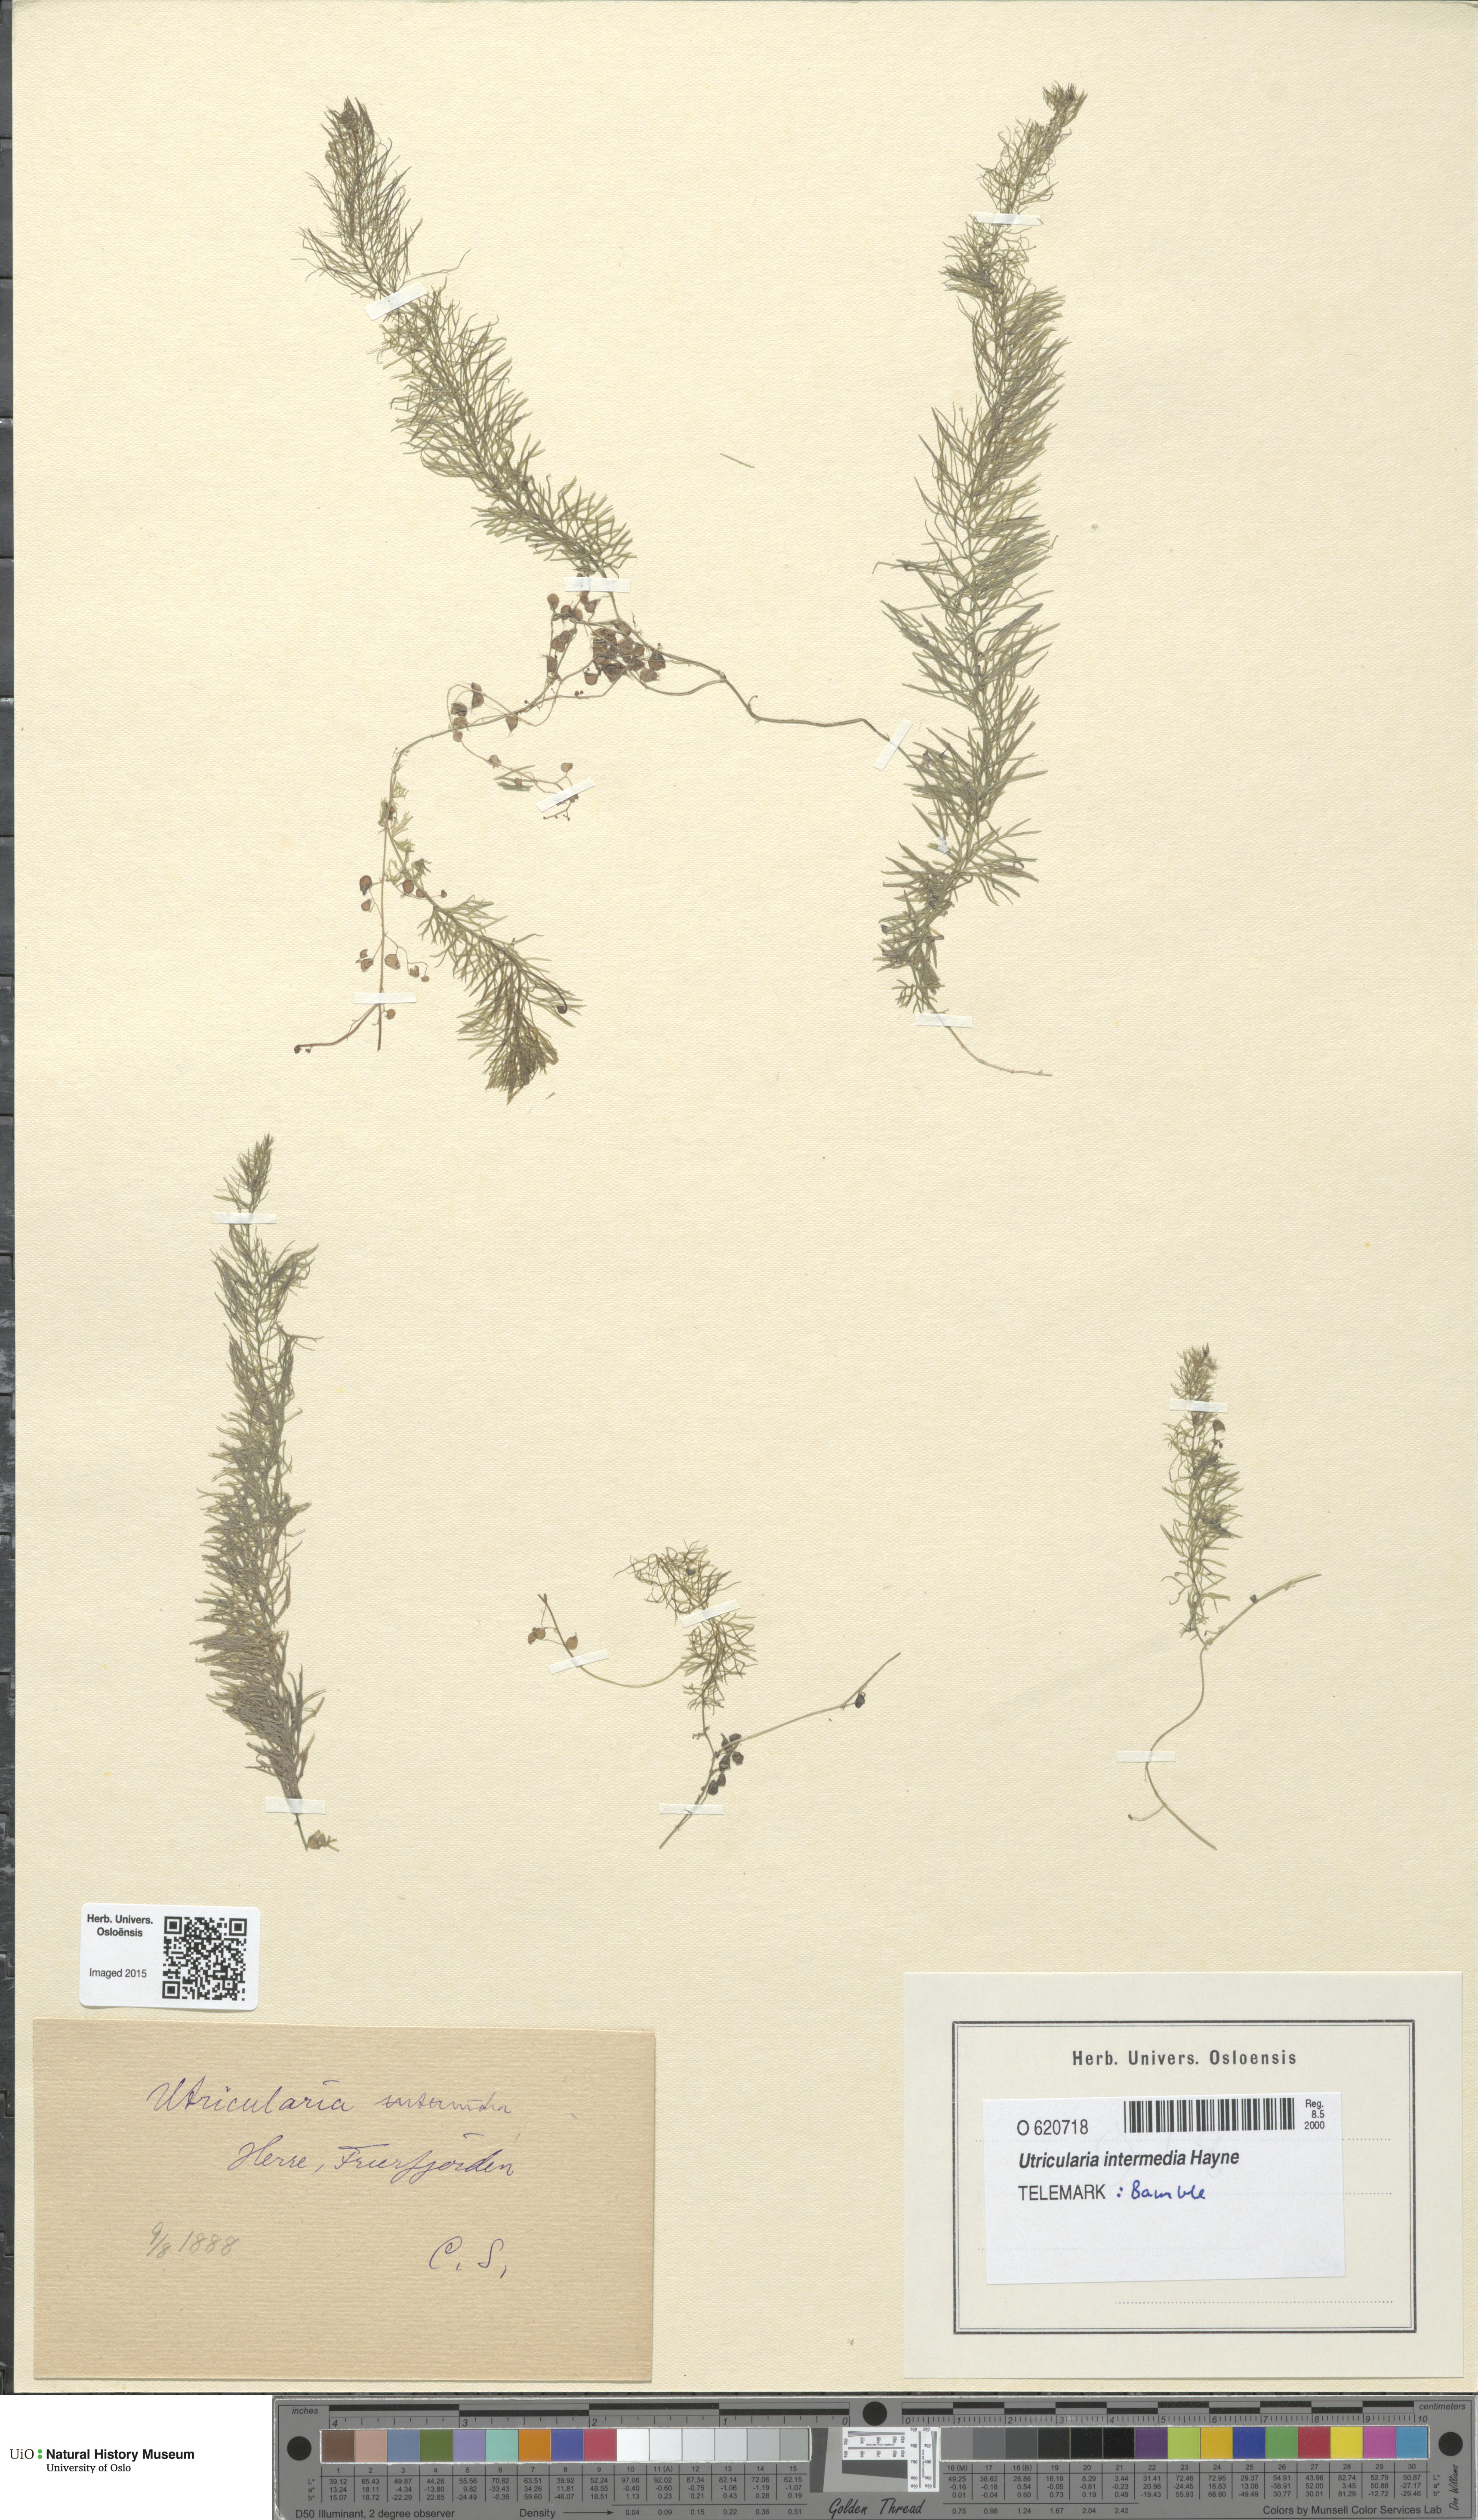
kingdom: Plantae
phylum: Tracheophyta
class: Magnoliopsida
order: Lamiales
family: Lentibulariaceae
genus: Utricularia
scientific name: Utricularia intermedia
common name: Intermediate bladderwort
